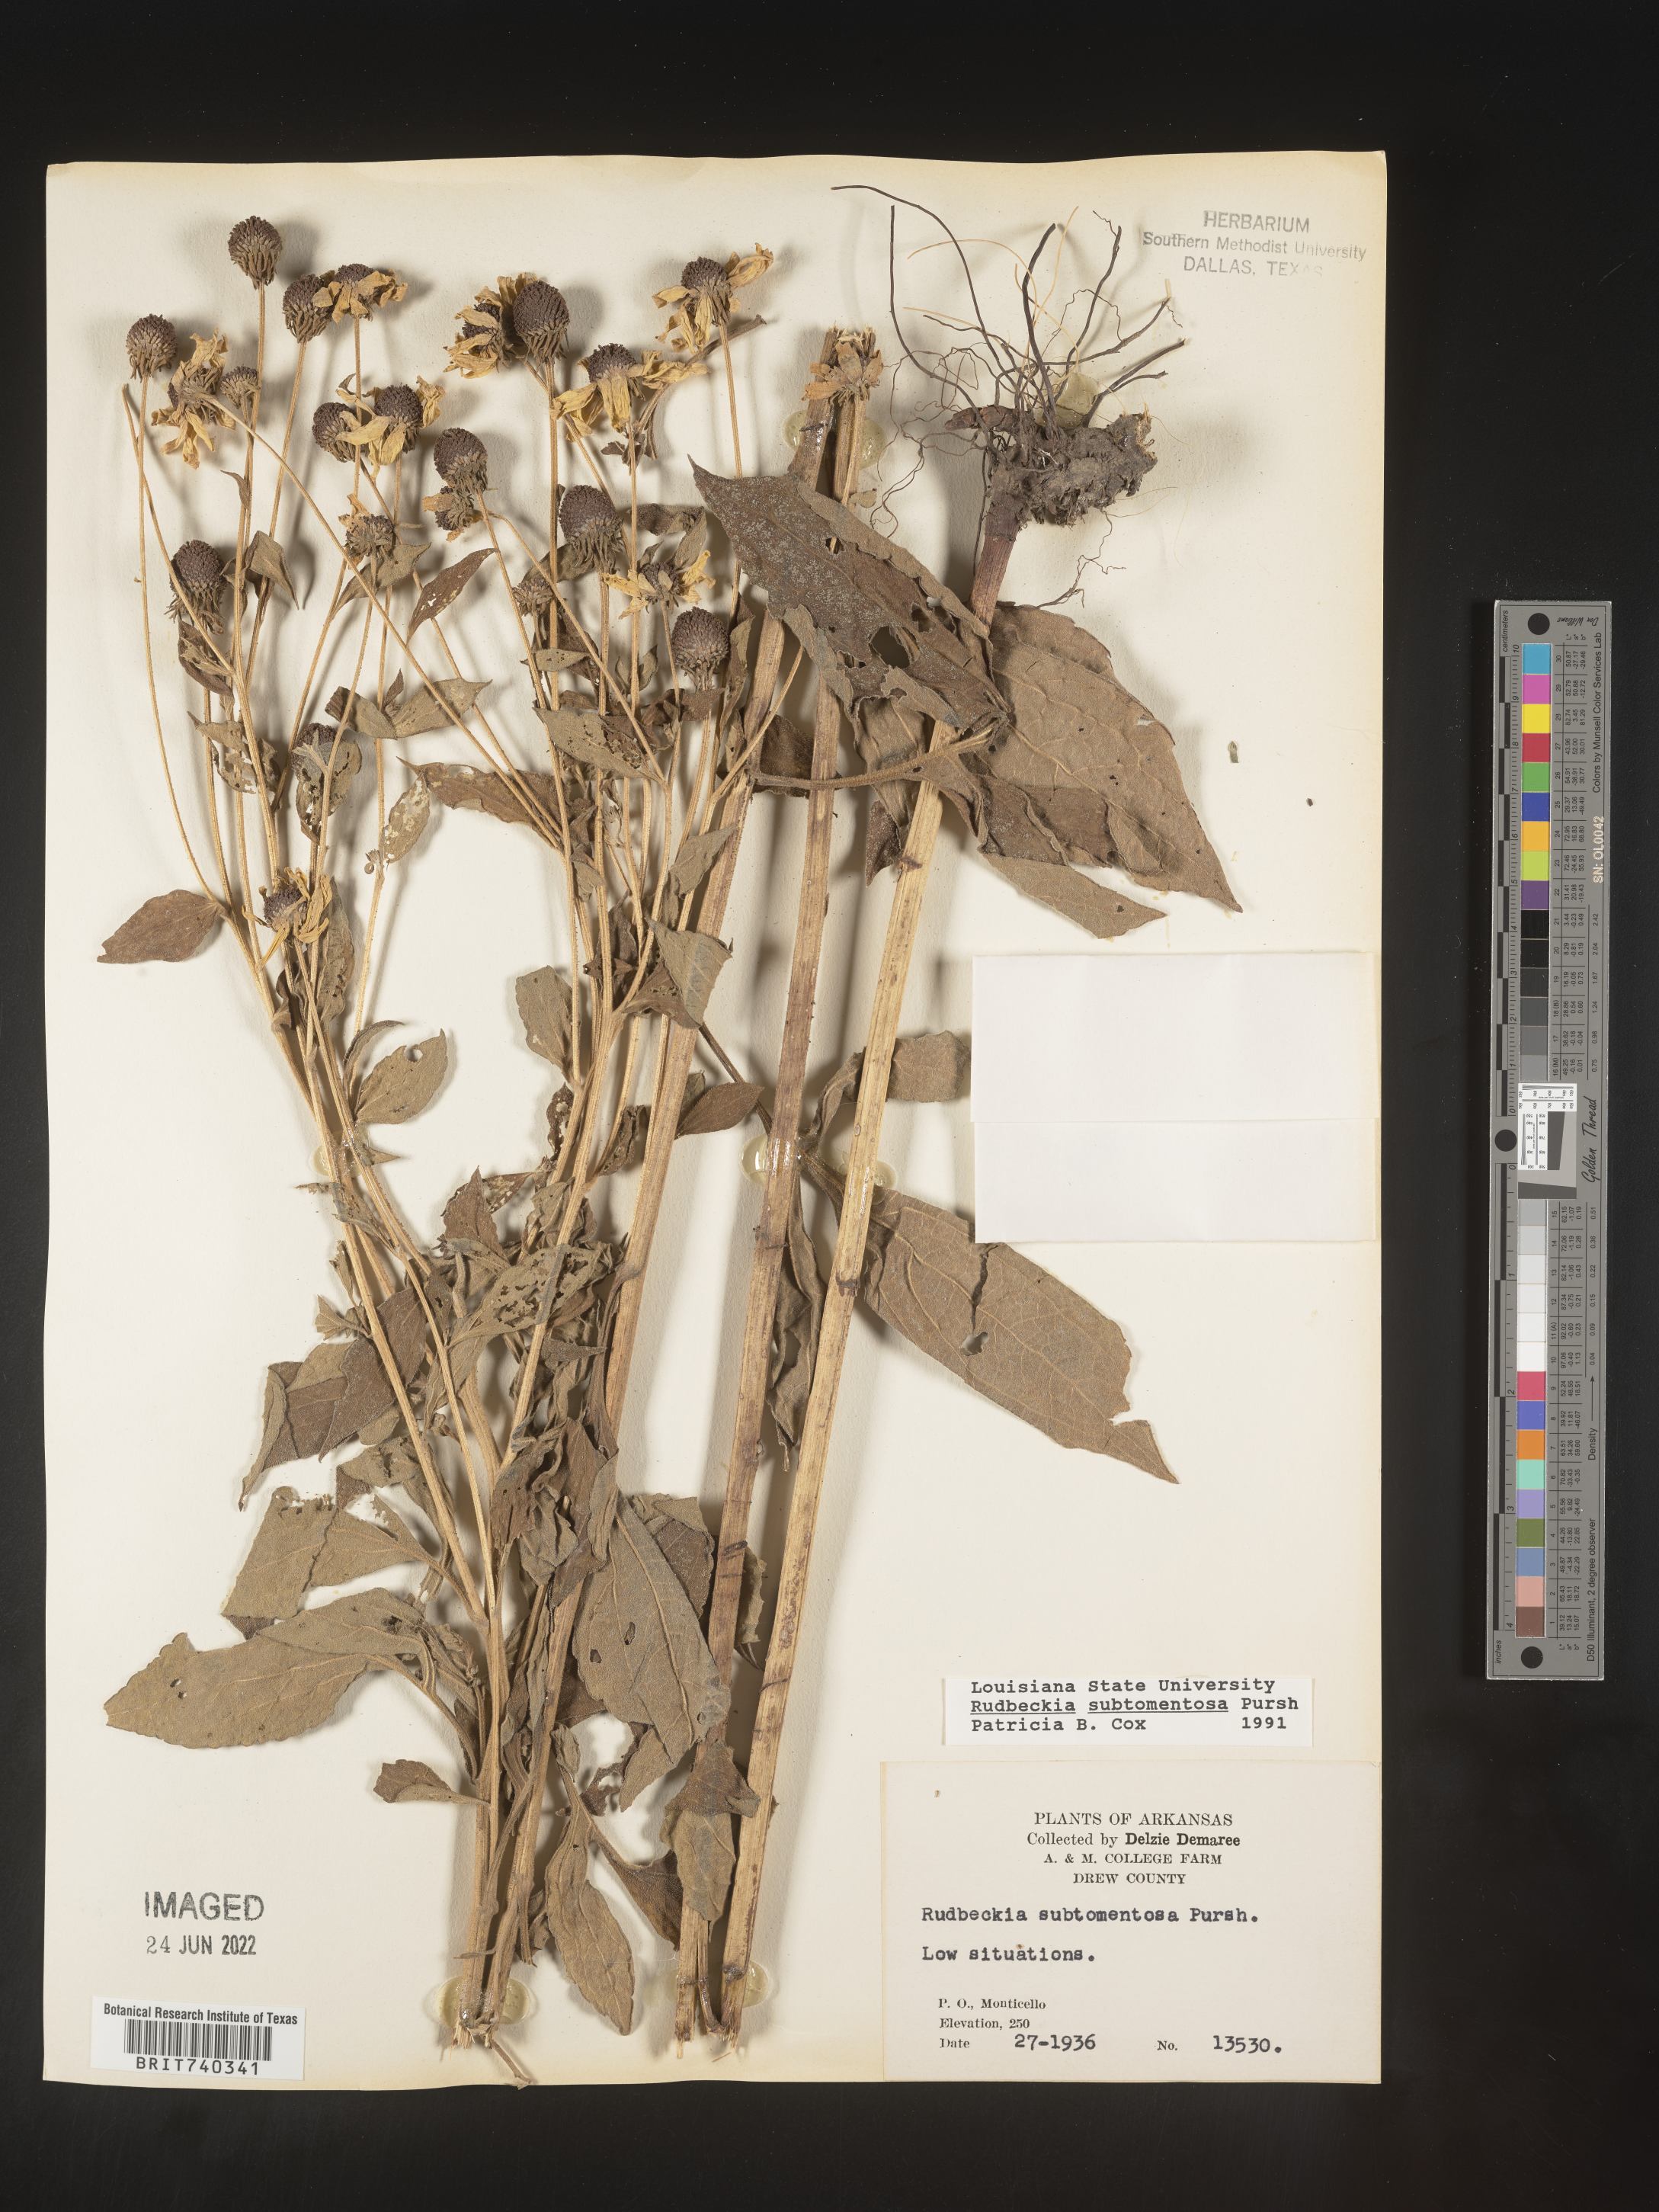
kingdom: Plantae
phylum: Tracheophyta
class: Magnoliopsida
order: Asterales
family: Asteraceae
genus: Rudbeckia
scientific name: Rudbeckia subtomentosa
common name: Sweet coneflower
